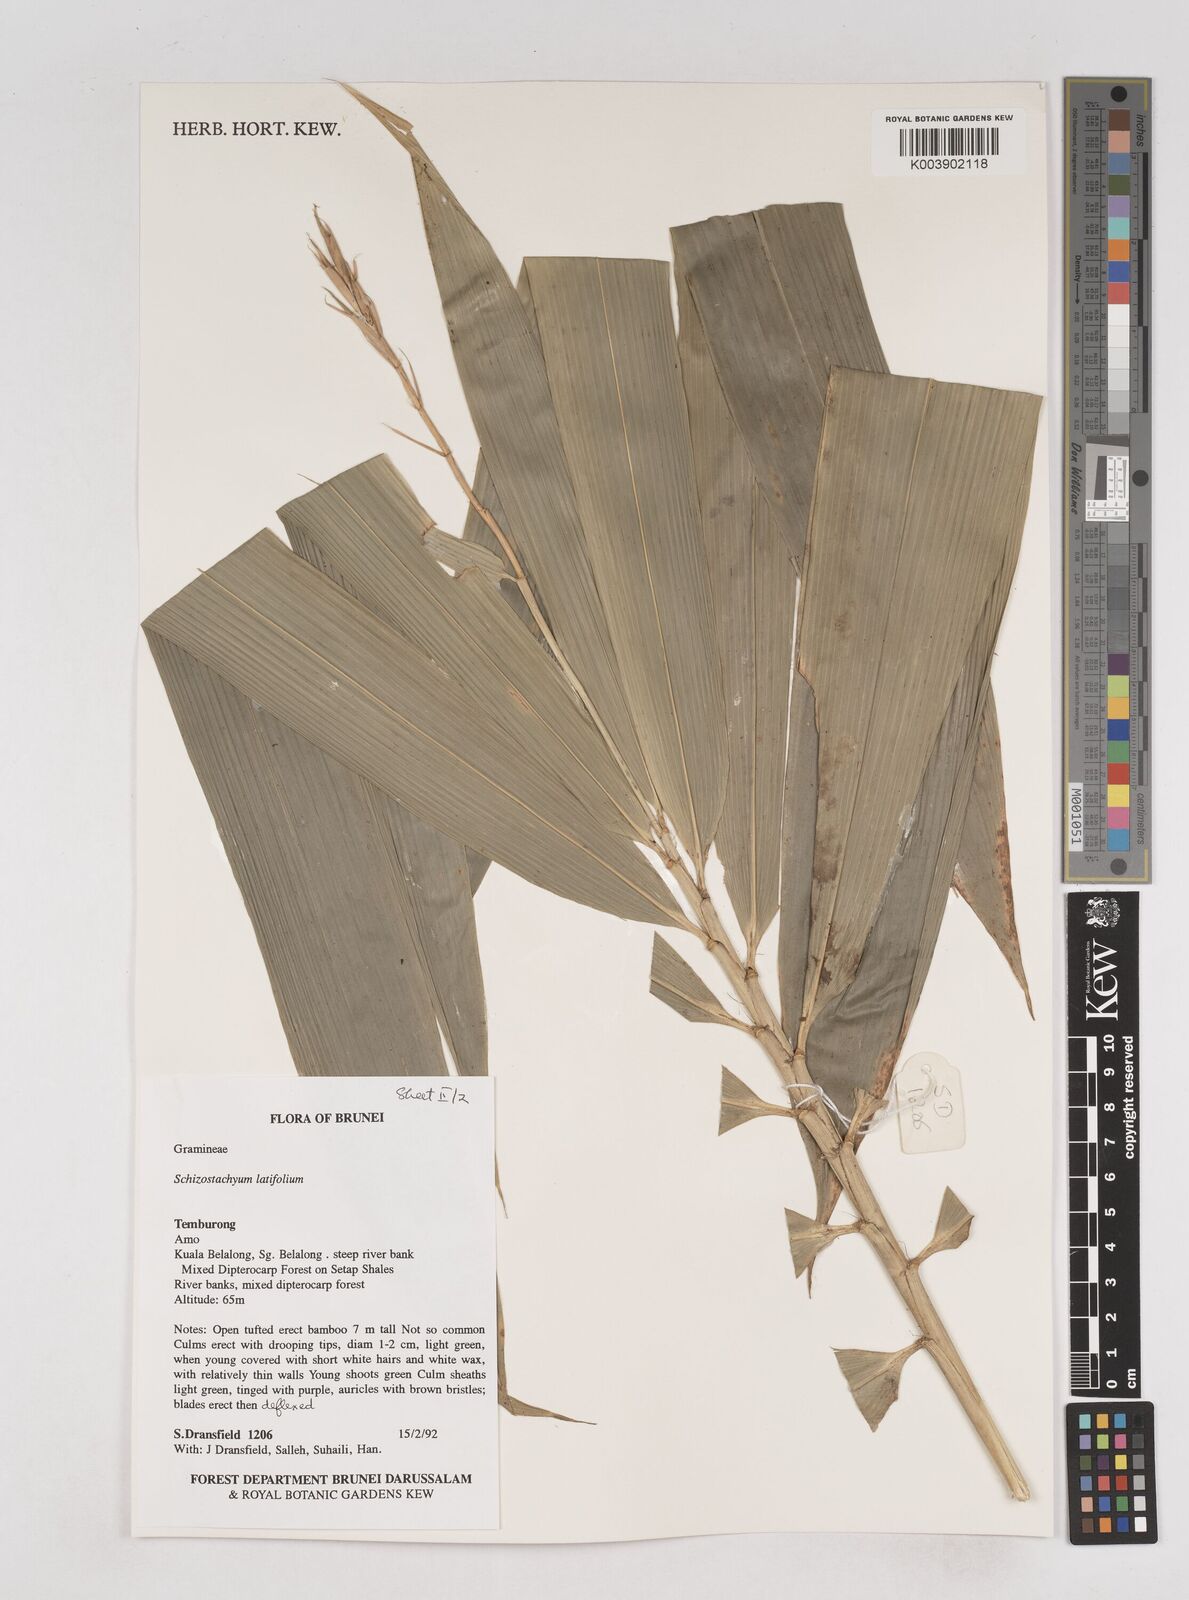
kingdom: Plantae
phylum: Tracheophyta
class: Liliopsida
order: Poales
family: Poaceae
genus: Schizostachyum
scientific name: Schizostachyum
